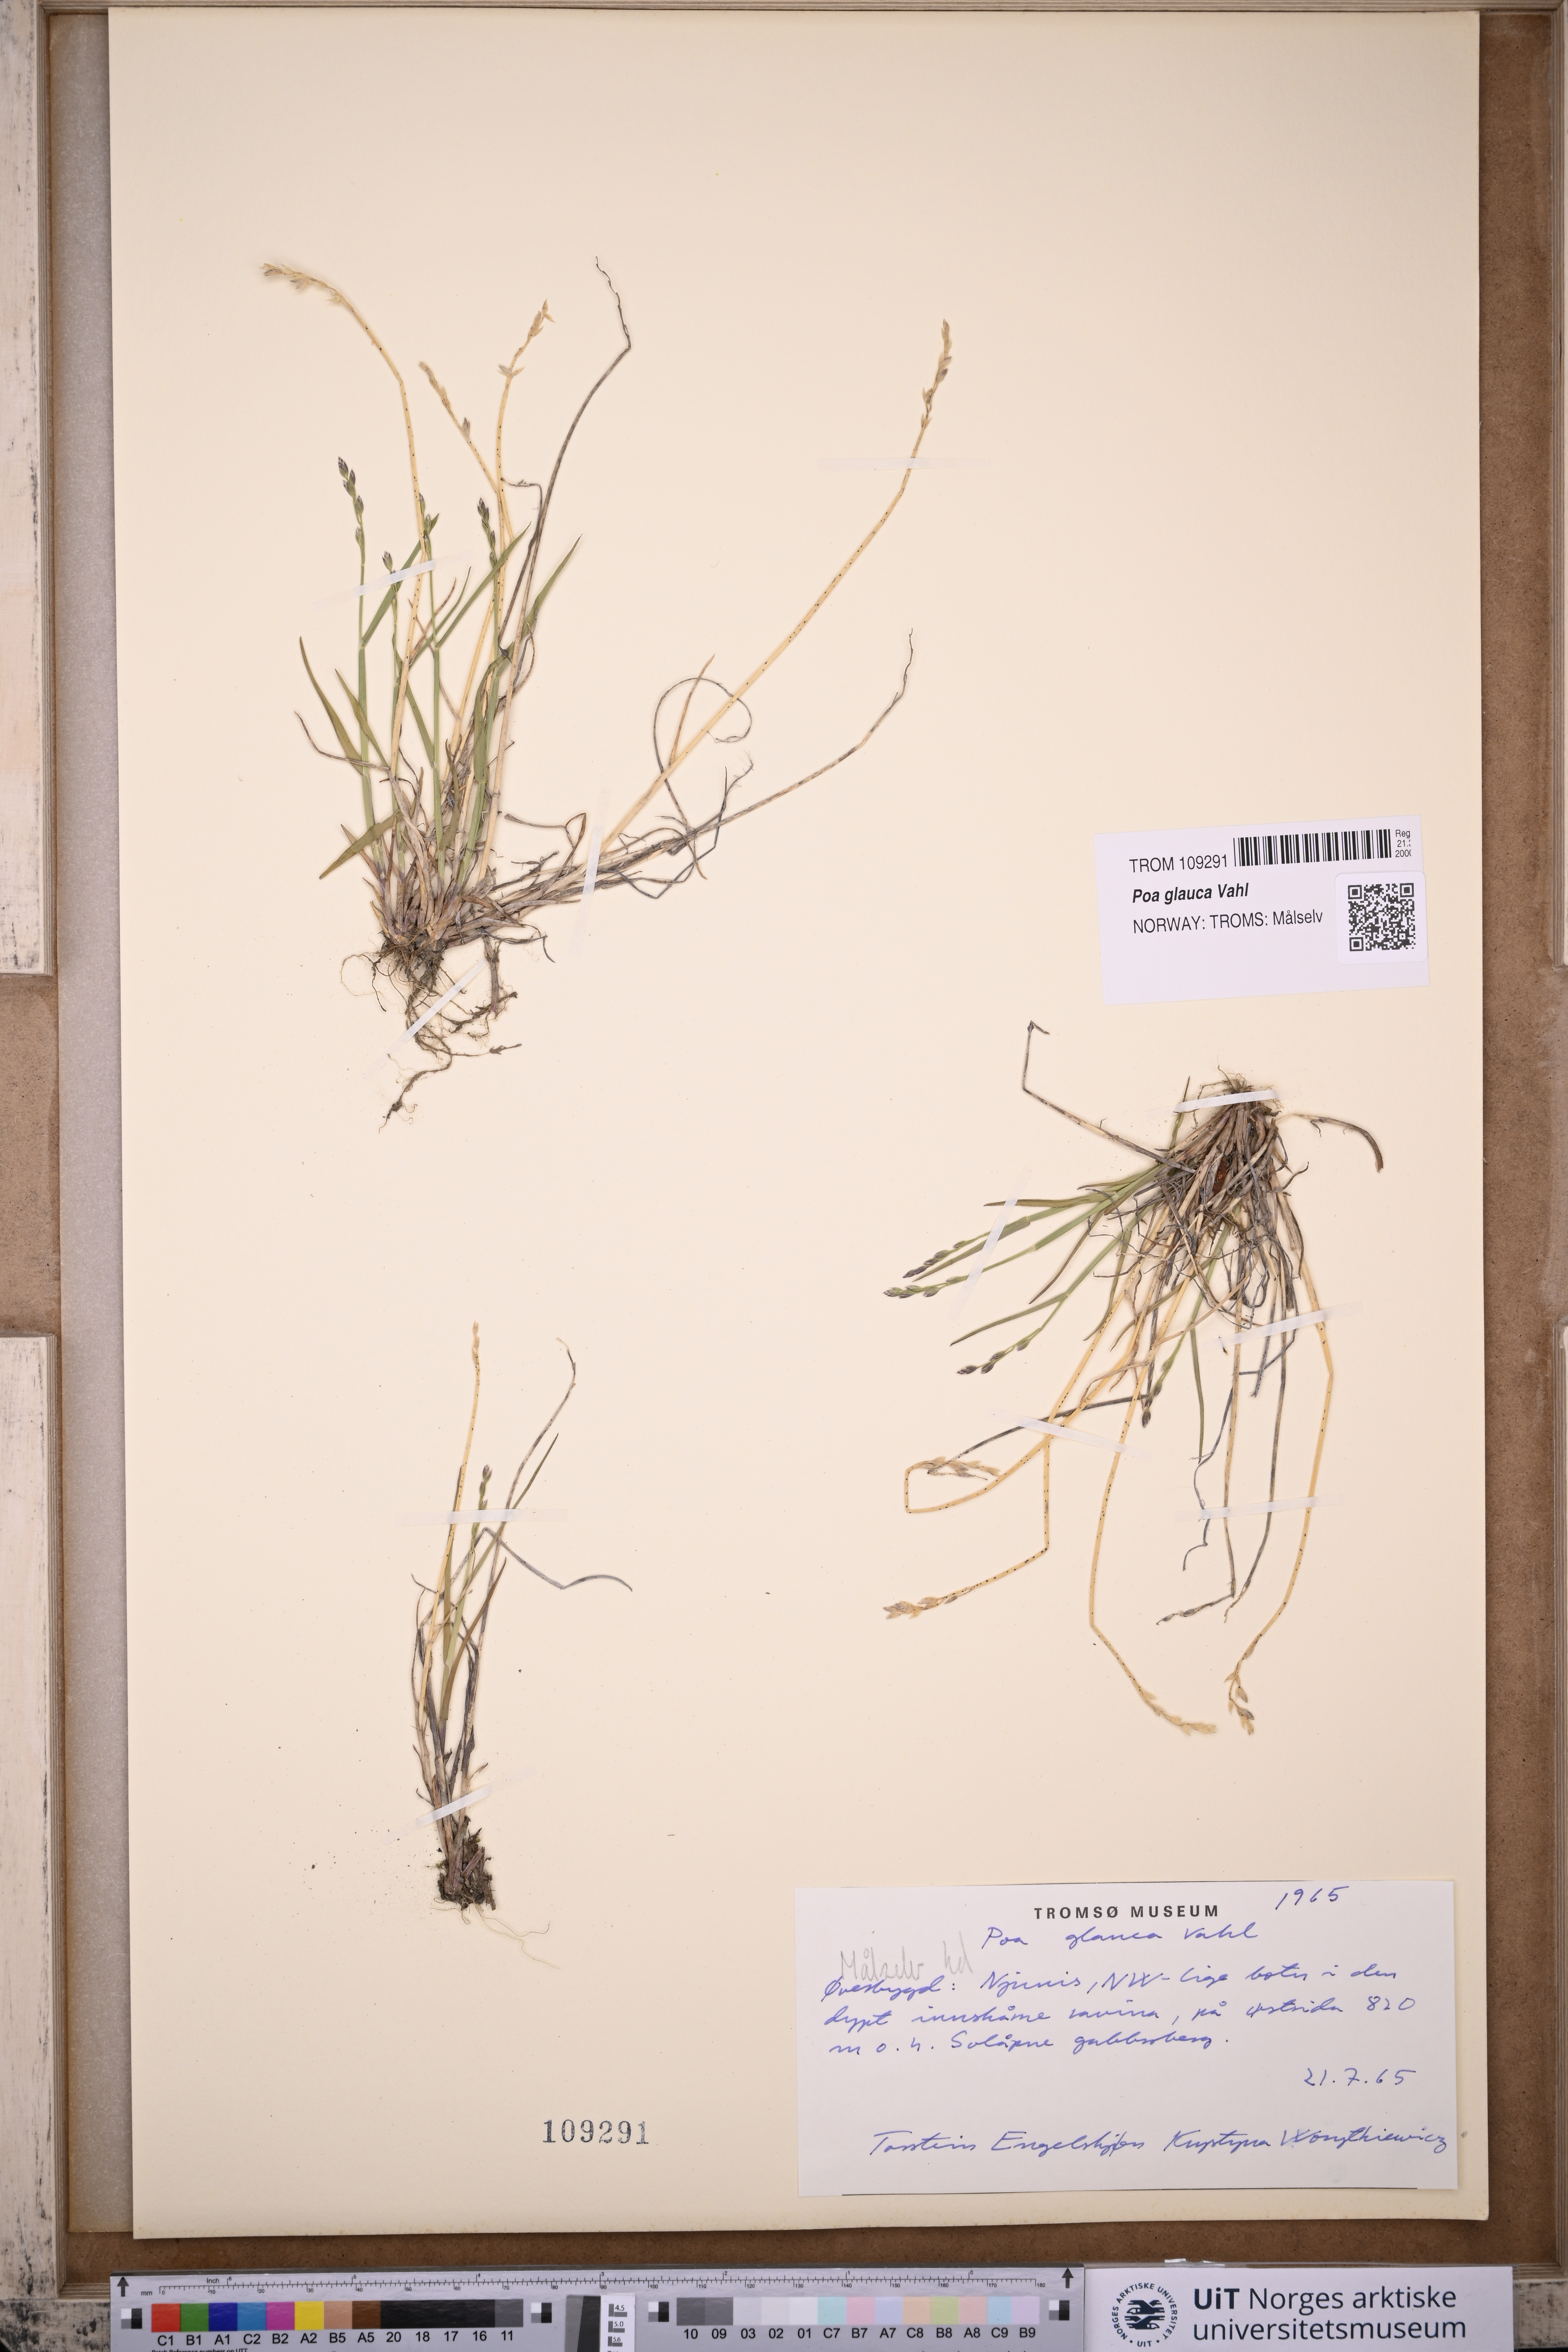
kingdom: Plantae
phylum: Tracheophyta
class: Liliopsida
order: Poales
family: Poaceae
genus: Poa
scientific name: Poa glauca
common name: Glaucous bluegrass
